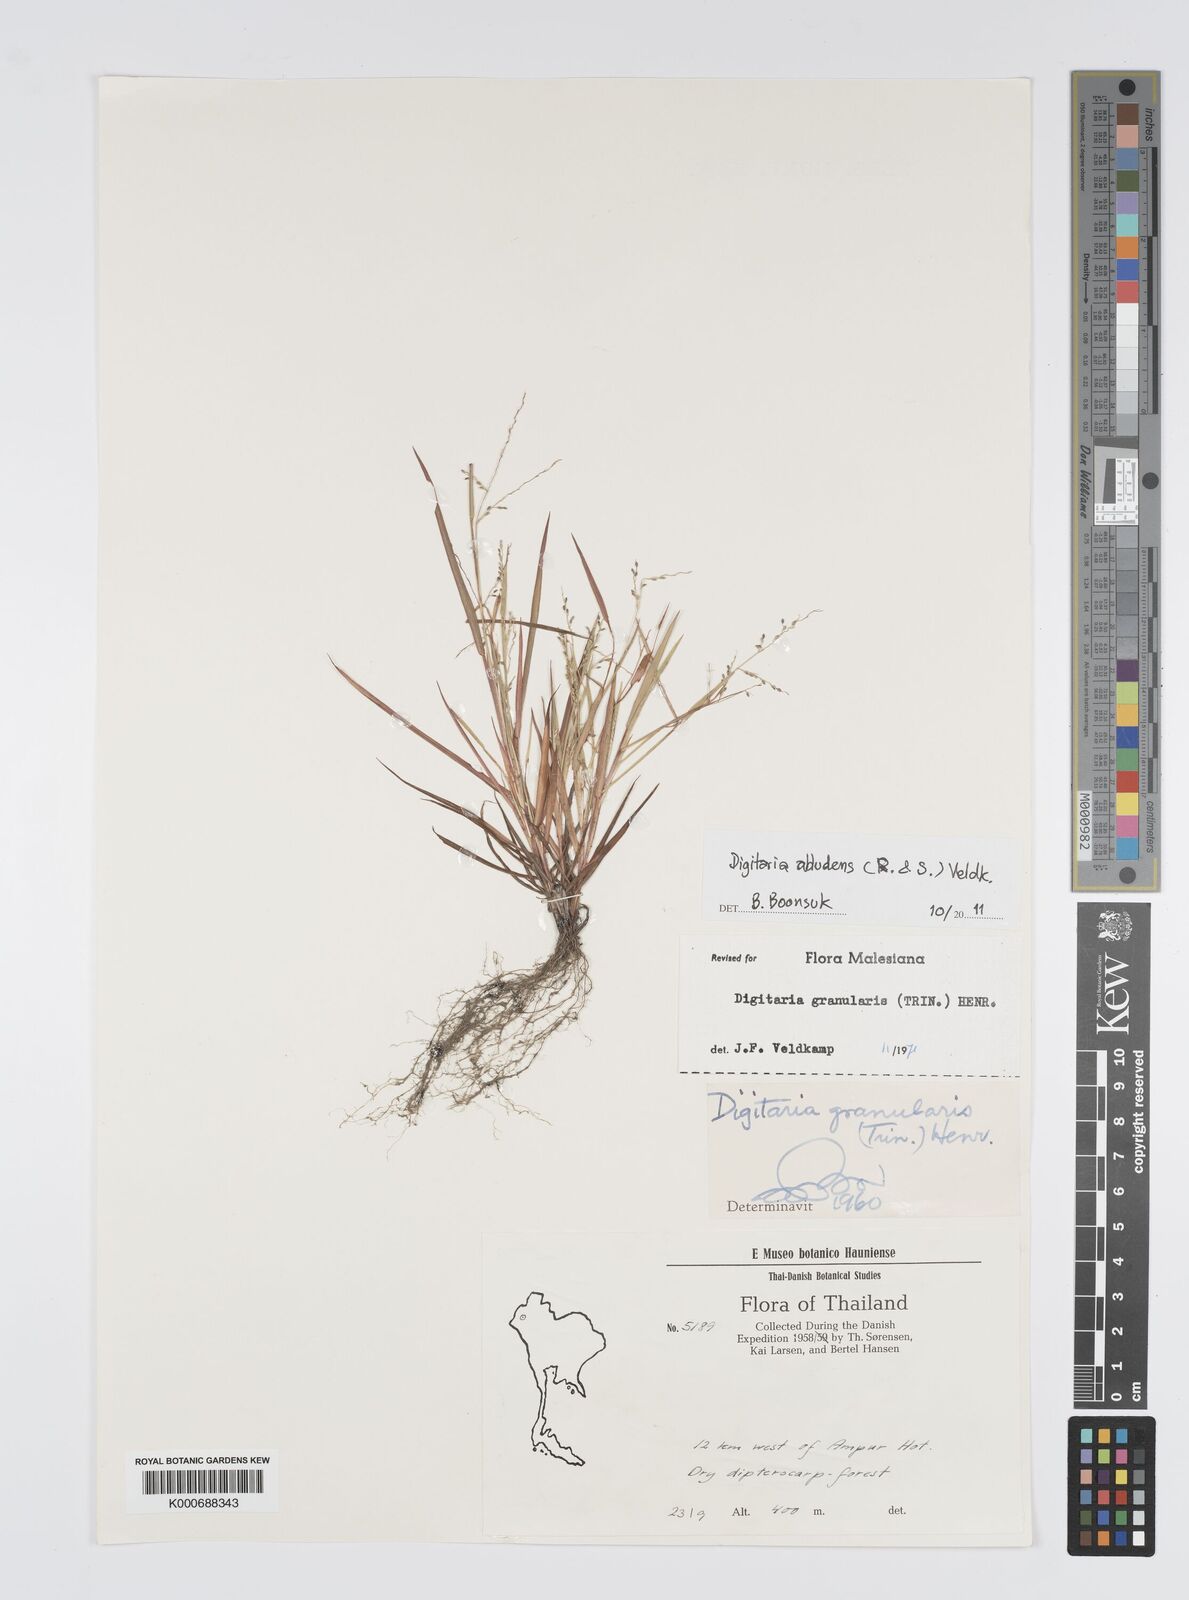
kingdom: Plantae
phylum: Tracheophyta
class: Liliopsida
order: Poales
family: Poaceae
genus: Digitaria
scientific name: Digitaria abludens
